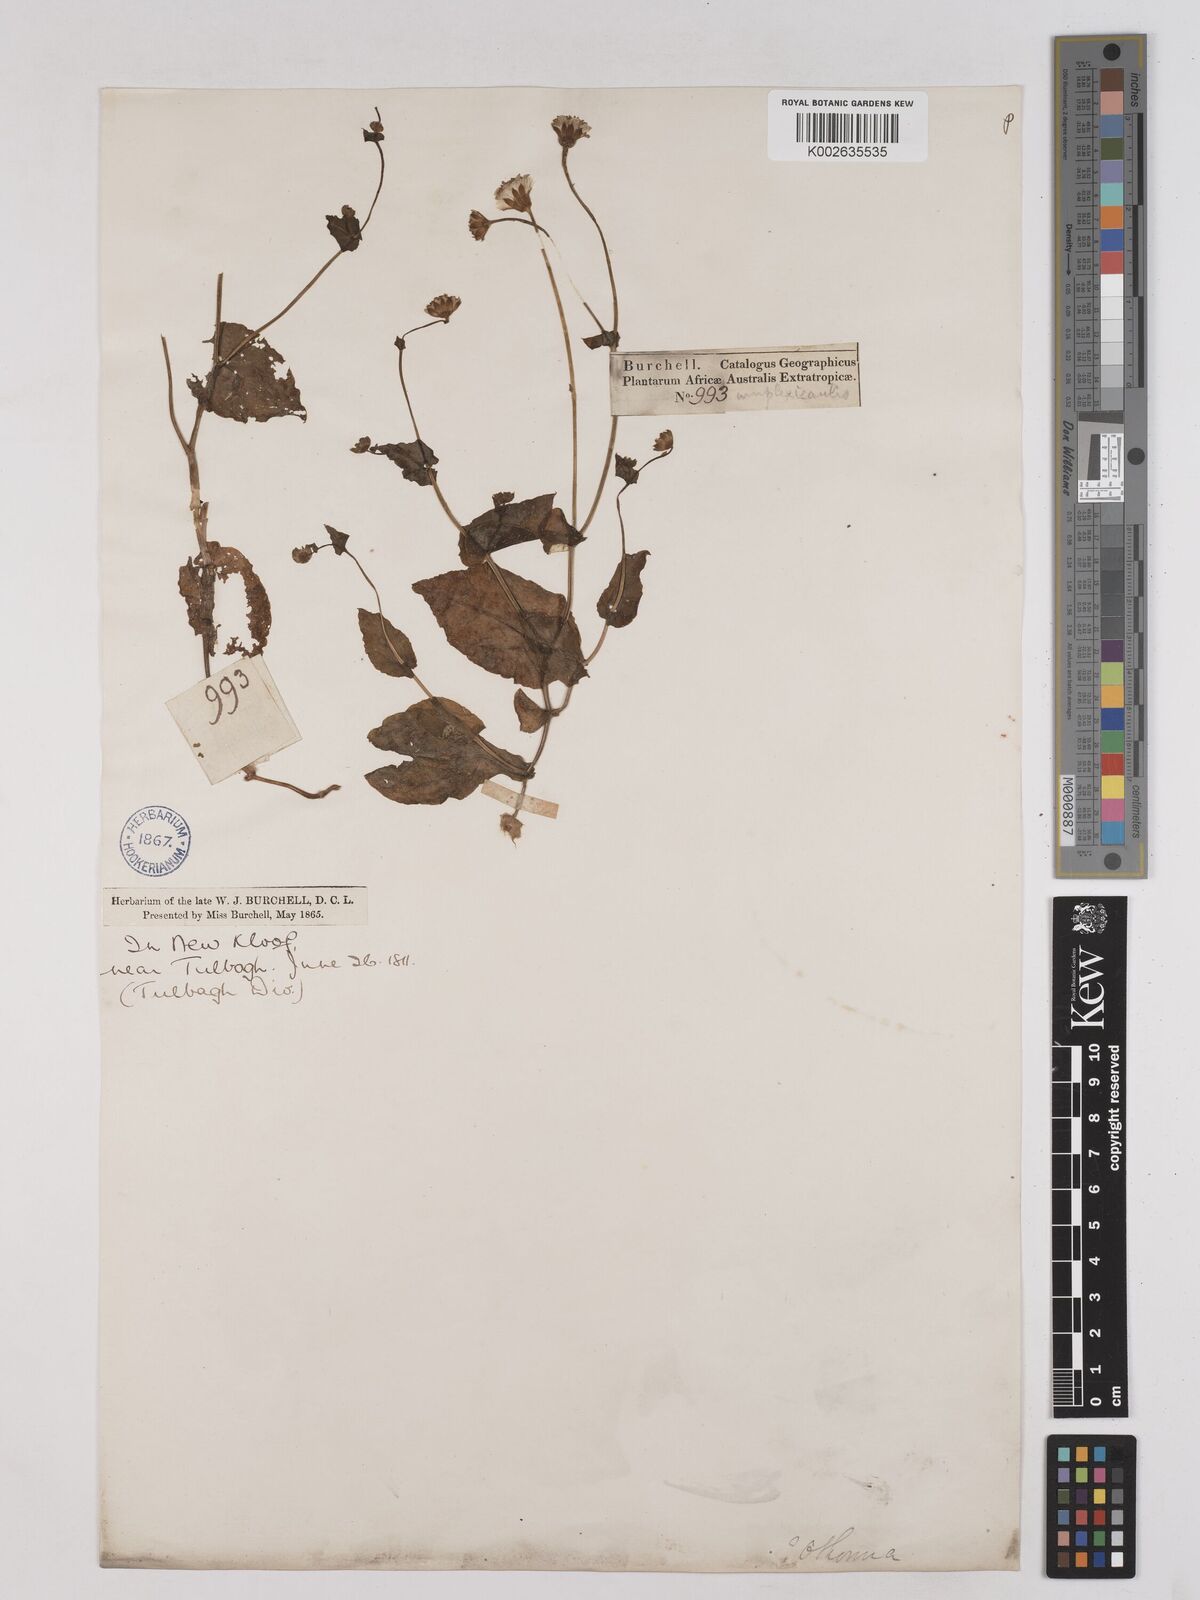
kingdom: Plantae
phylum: Tracheophyta
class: Magnoliopsida
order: Asterales
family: Asteraceae
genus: Othonna
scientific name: Othonna amplexifolia
